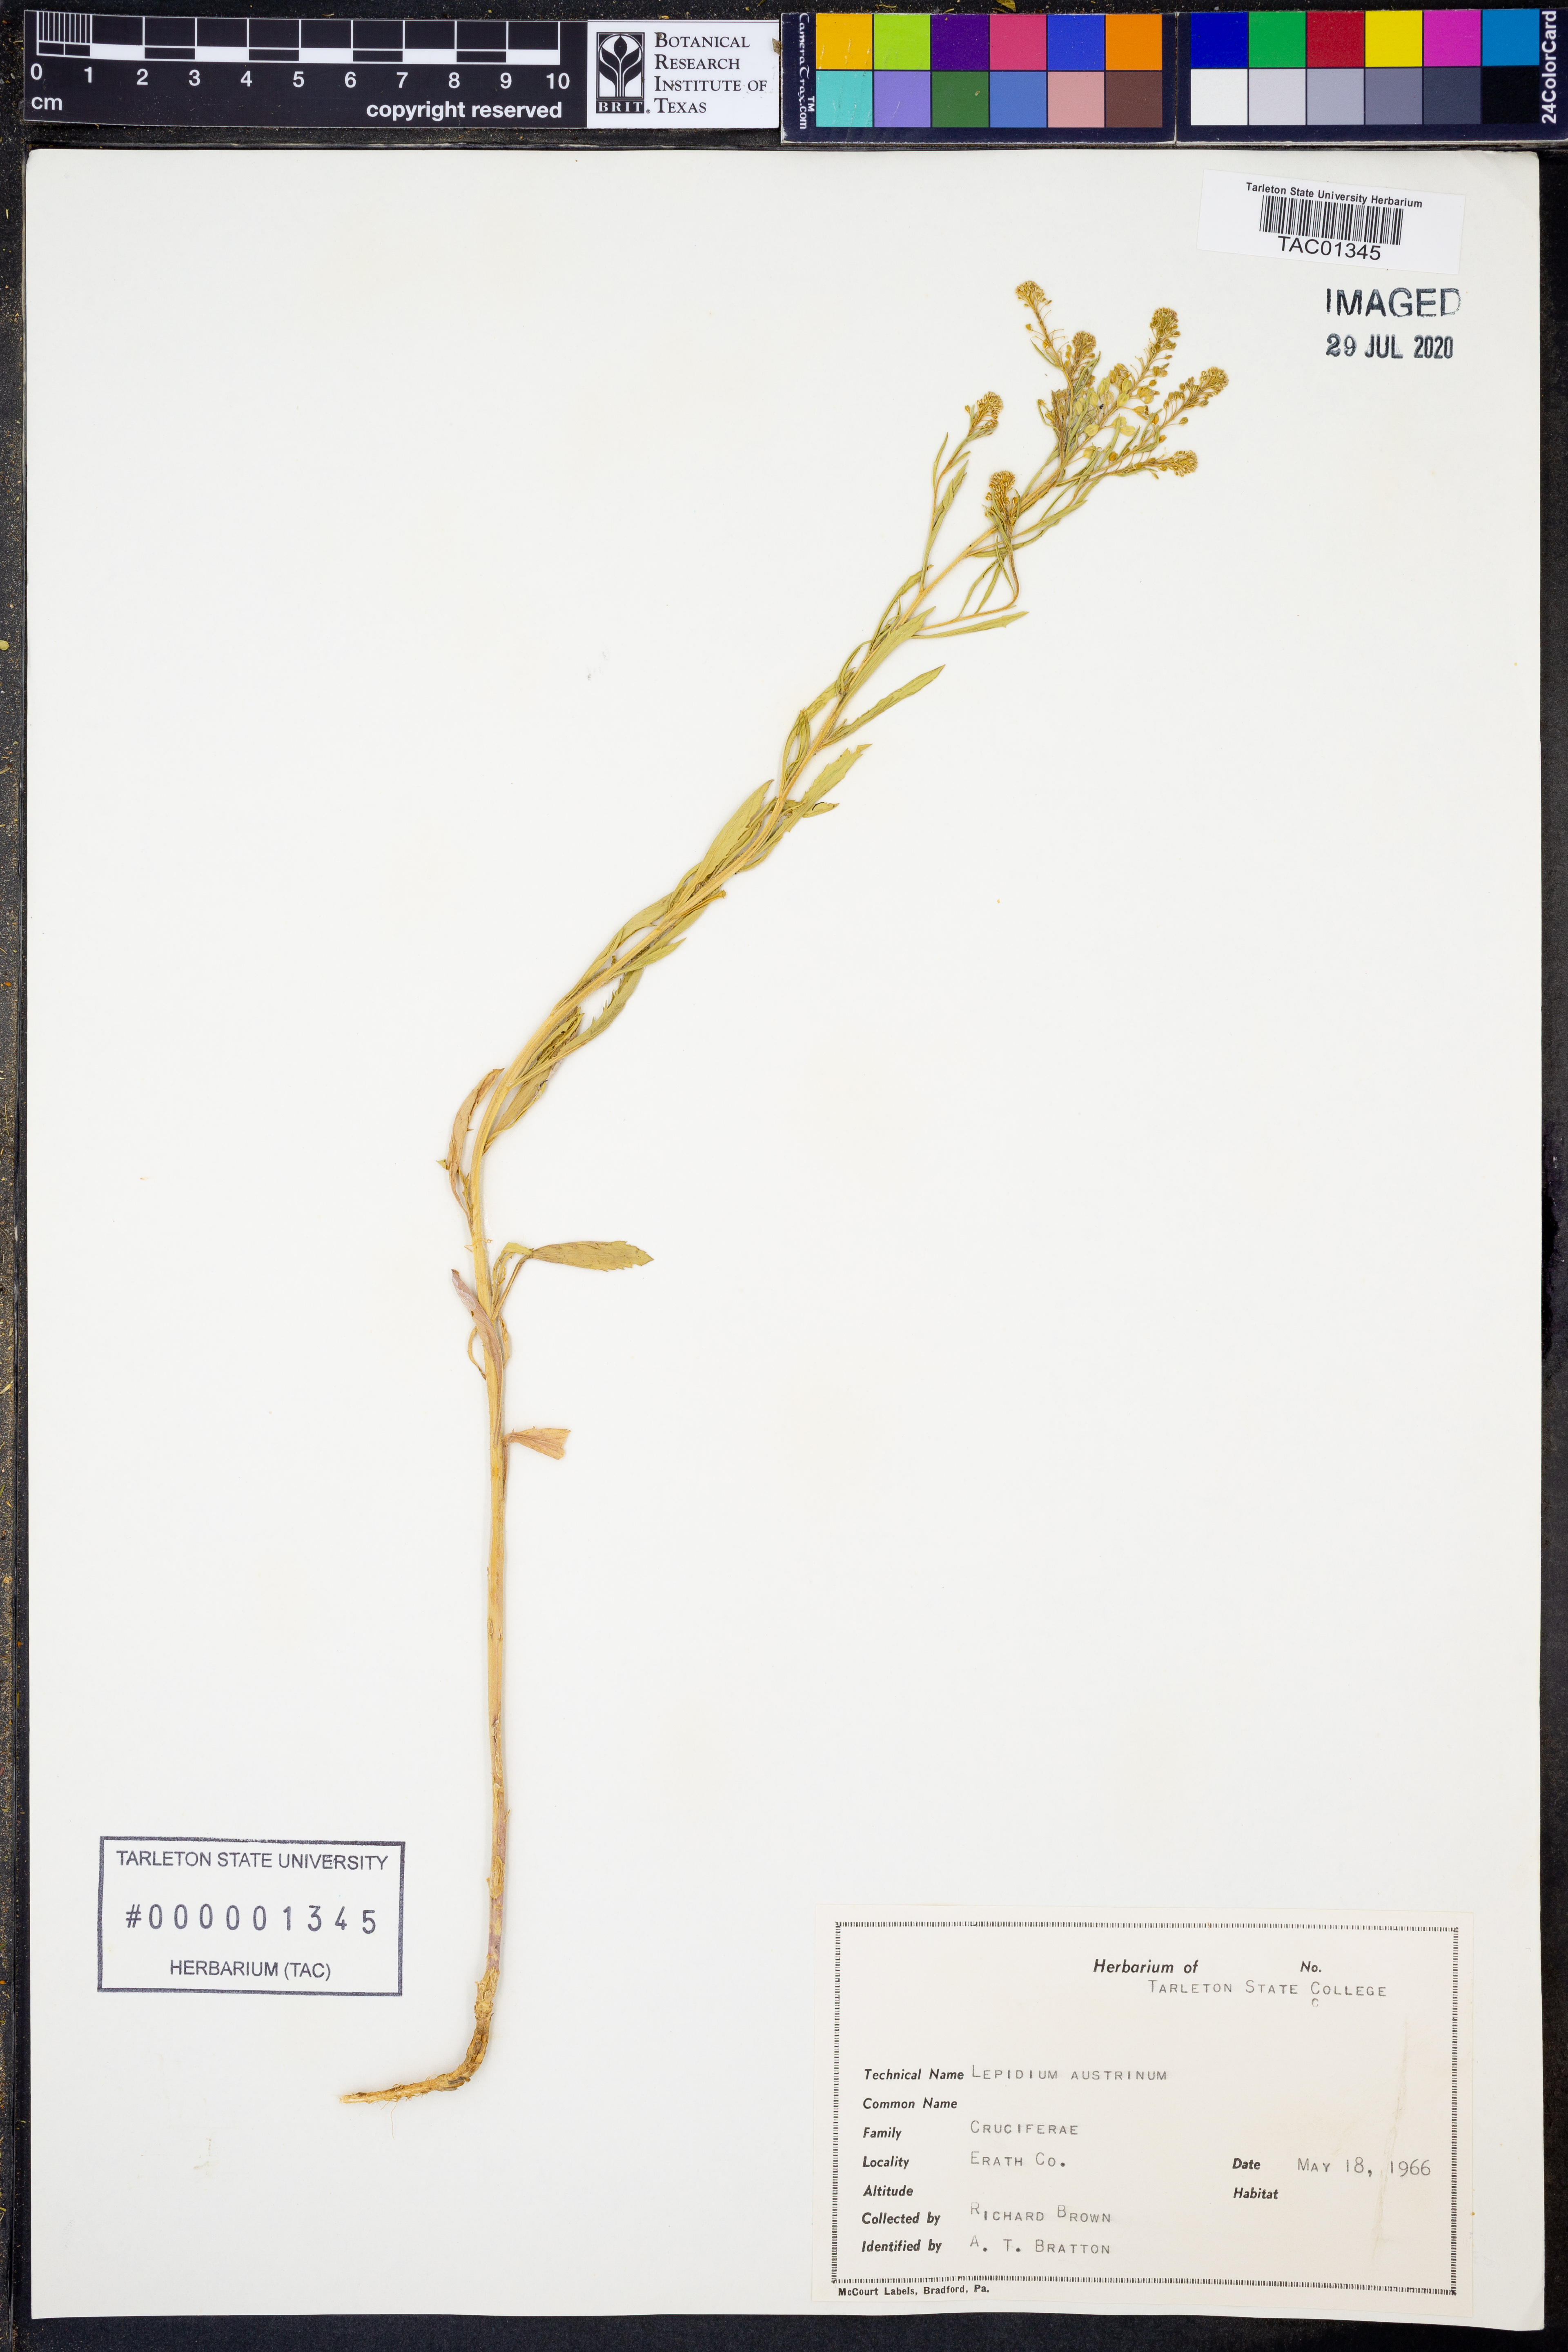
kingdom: Plantae
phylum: Tracheophyta
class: Magnoliopsida
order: Brassicales
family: Brassicaceae
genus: Lepidium
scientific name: Lepidium austrinum
